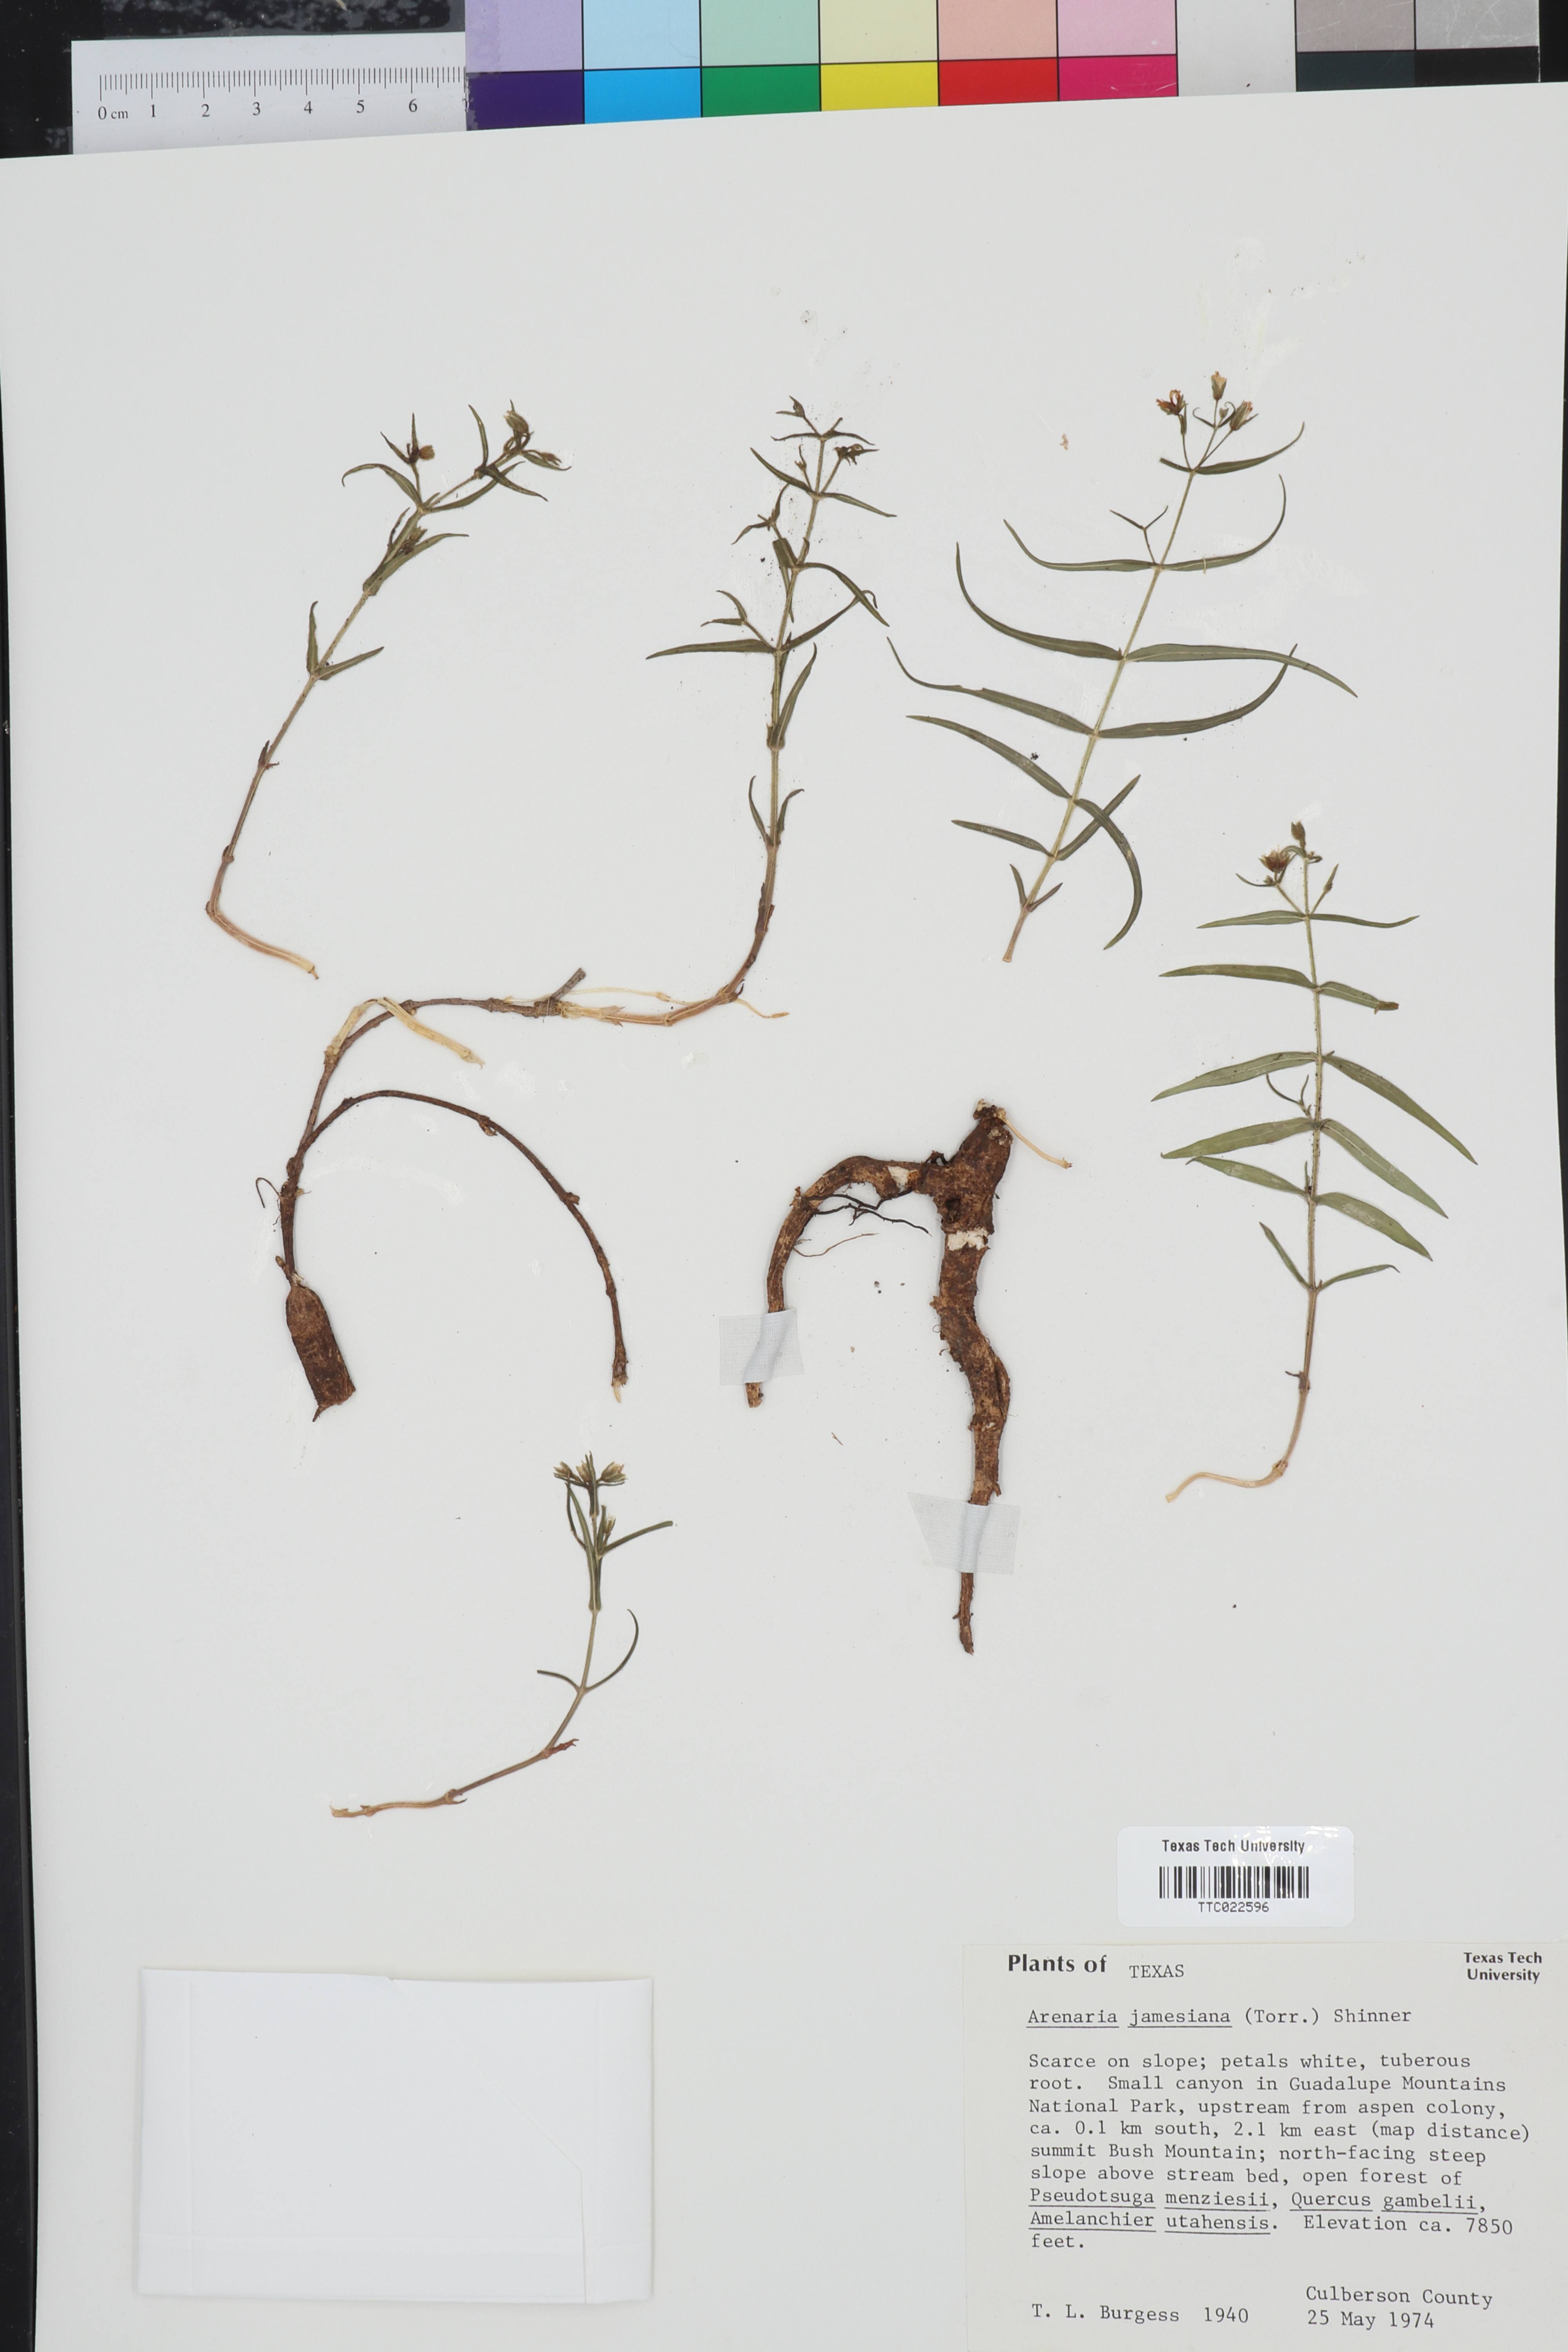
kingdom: Plantae
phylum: Tracheophyta
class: Magnoliopsida
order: Caryophyllales
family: Caryophyllaceae
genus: Schizotechium
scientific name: Schizotechium jamesianum
